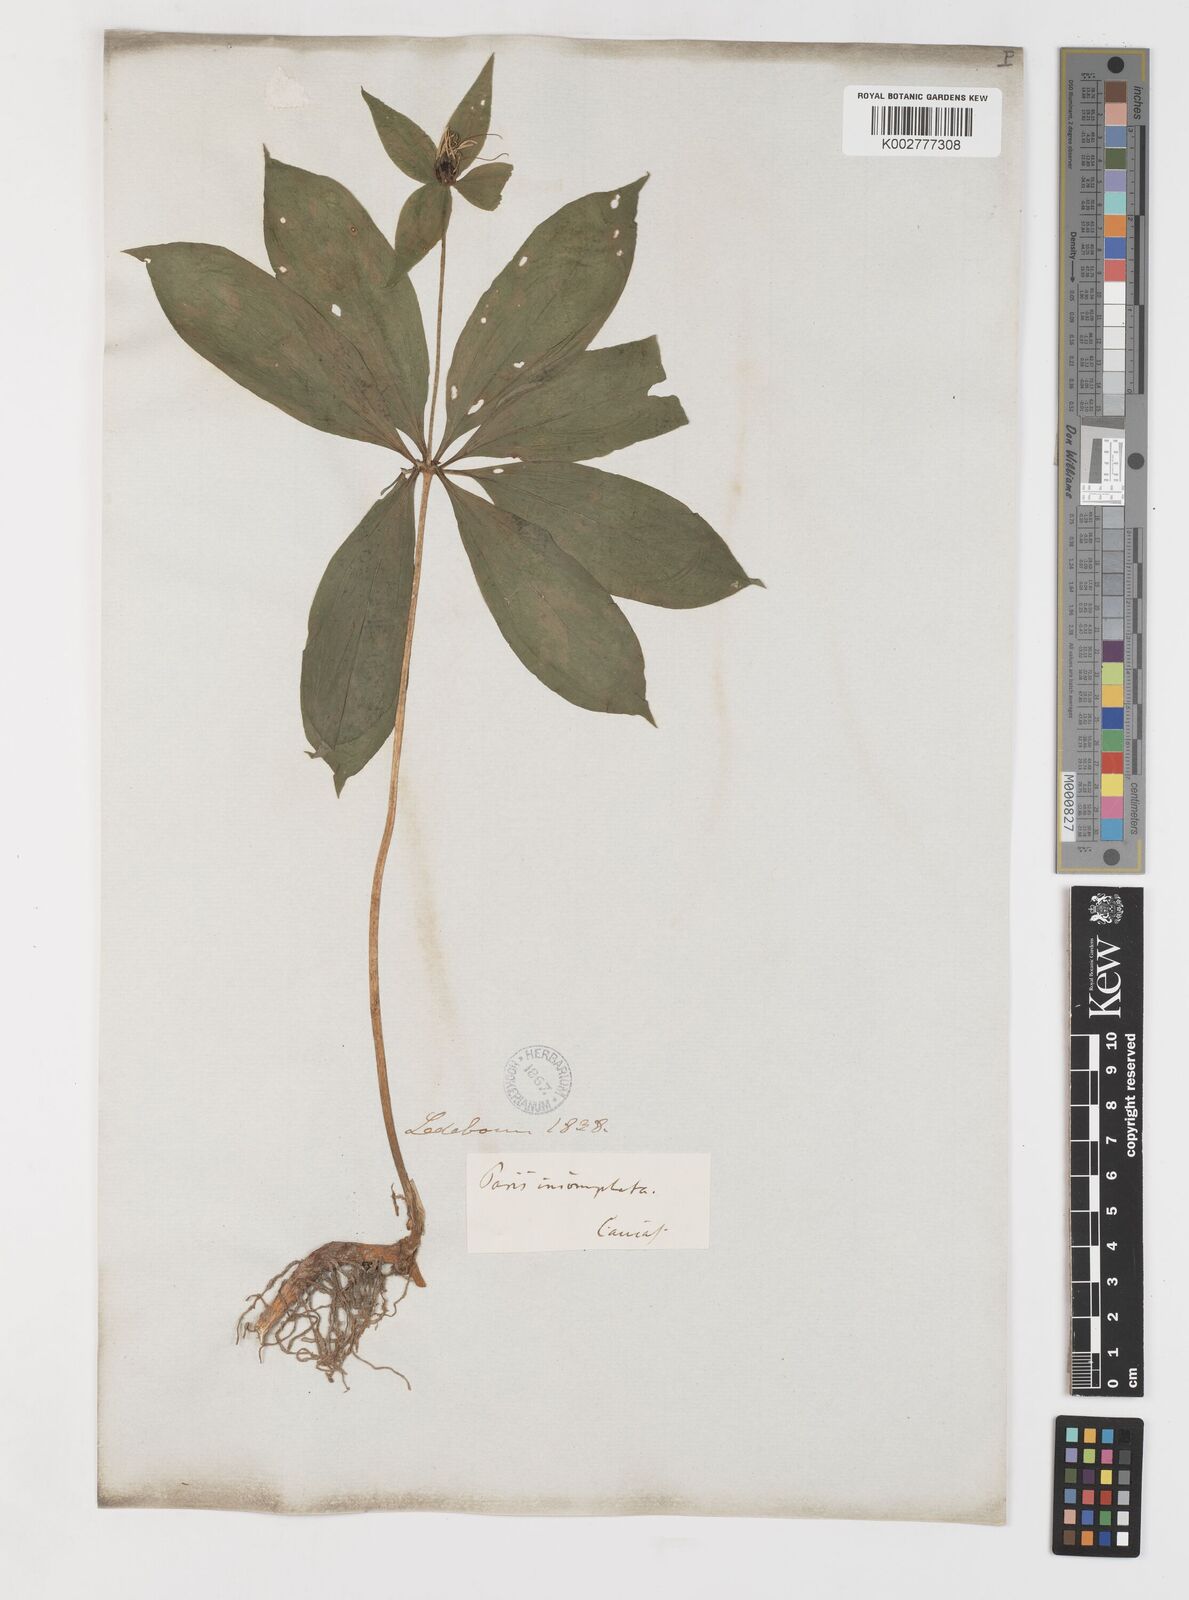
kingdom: Plantae
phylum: Tracheophyta
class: Liliopsida
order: Liliales
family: Melanthiaceae
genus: Paris
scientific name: Paris incompleta
